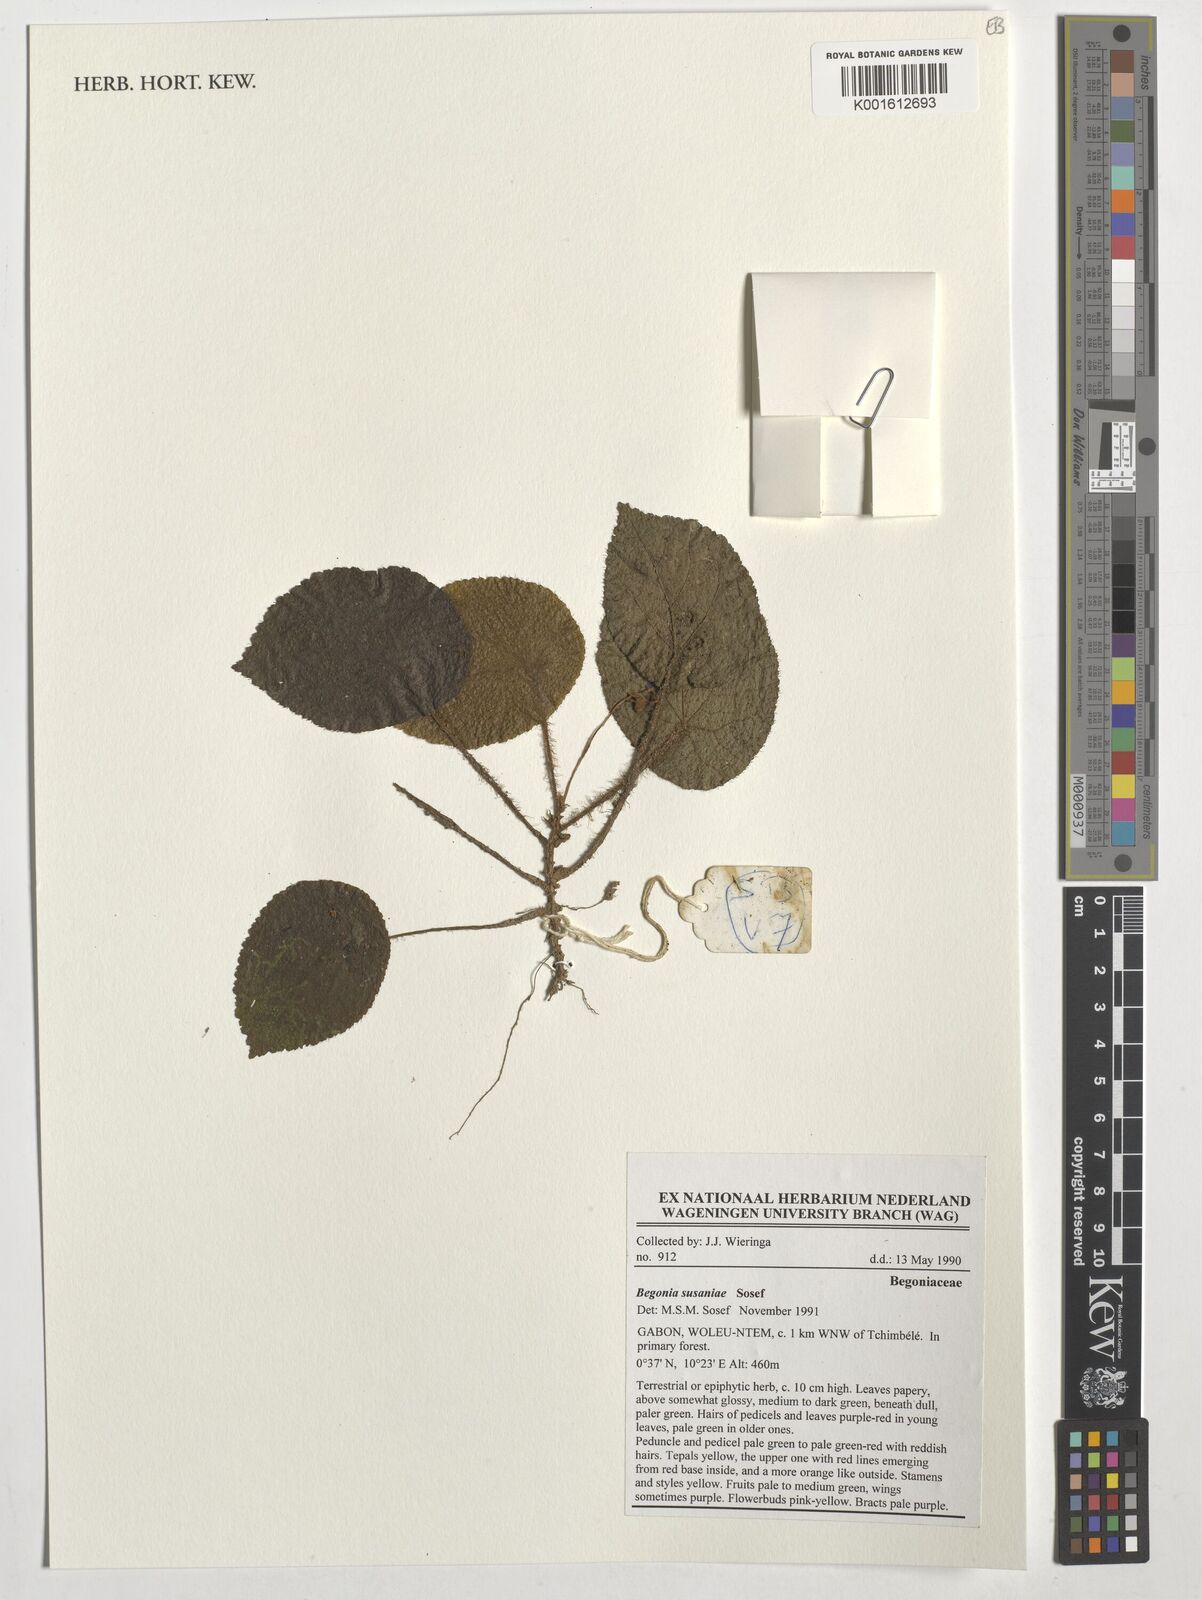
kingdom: Plantae
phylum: Tracheophyta
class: Magnoliopsida
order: Cucurbitales
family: Begoniaceae
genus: Begonia
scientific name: Begonia susaniae
